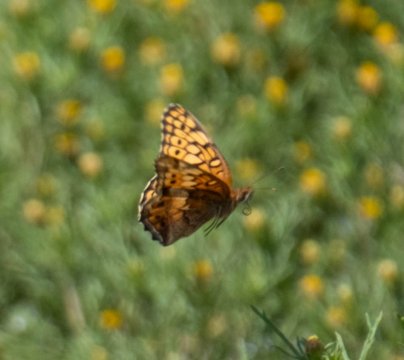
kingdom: Animalia
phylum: Arthropoda
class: Insecta
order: Lepidoptera
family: Nymphalidae
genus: Euptoieta
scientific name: Euptoieta claudia
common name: Variegated Fritillary
